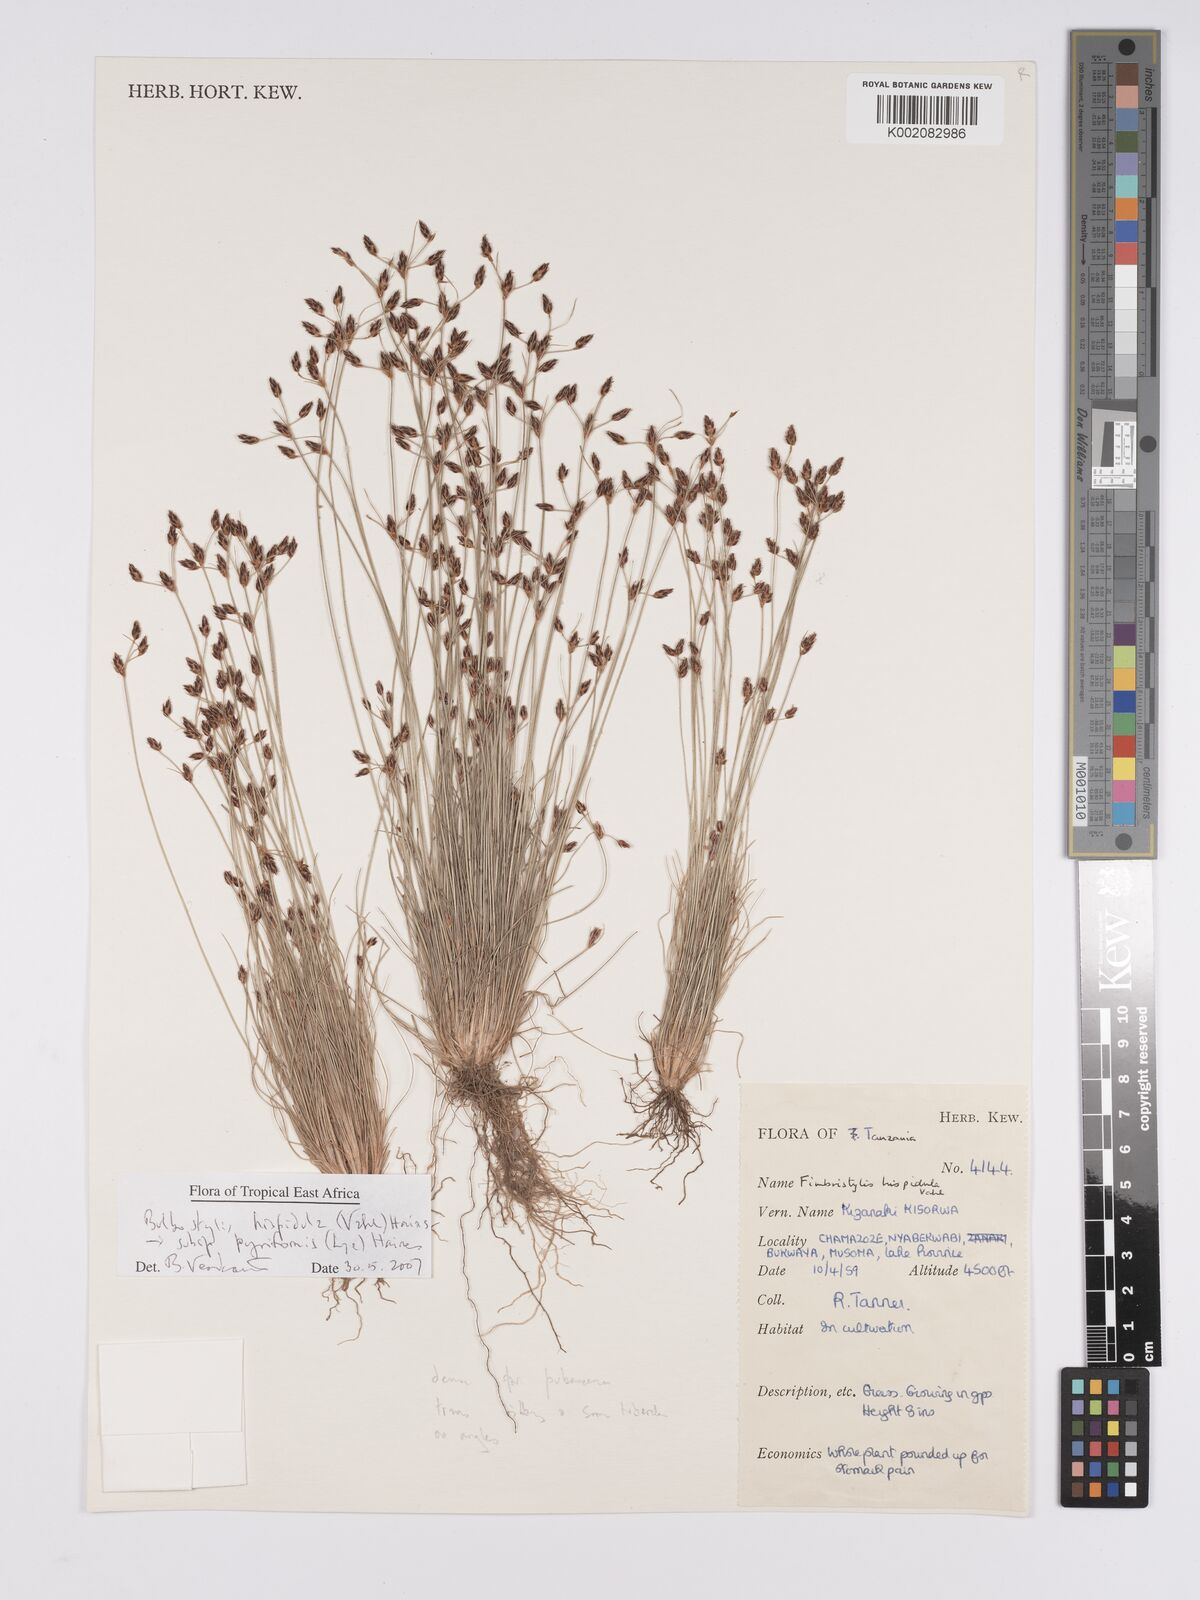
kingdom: Plantae
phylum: Tracheophyta
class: Liliopsida
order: Poales
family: Cyperaceae
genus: Bulbostylis
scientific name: Bulbostylis hispidula
